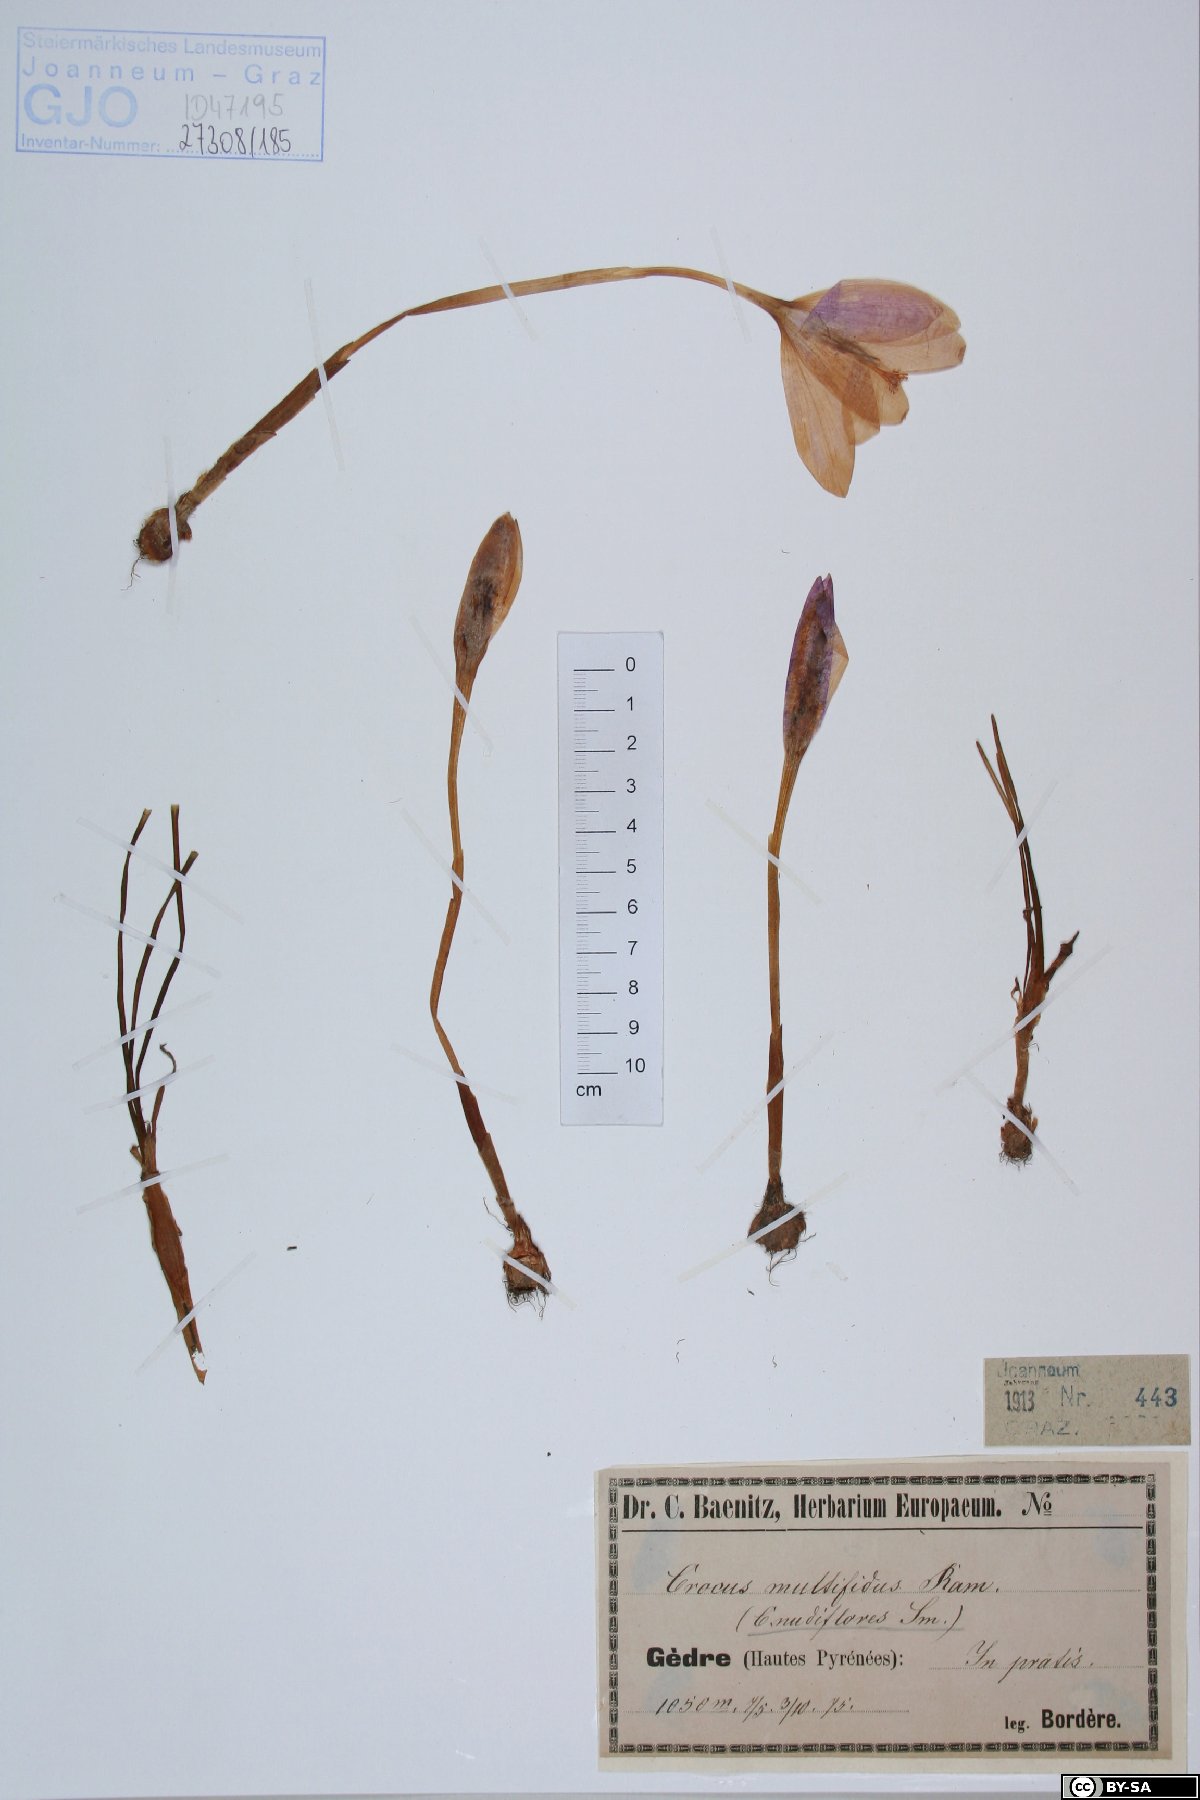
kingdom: Plantae
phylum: Tracheophyta
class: Liliopsida
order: Asparagales
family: Iridaceae
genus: Crocus
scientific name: Crocus nudiflorus
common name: Autumn crocus
